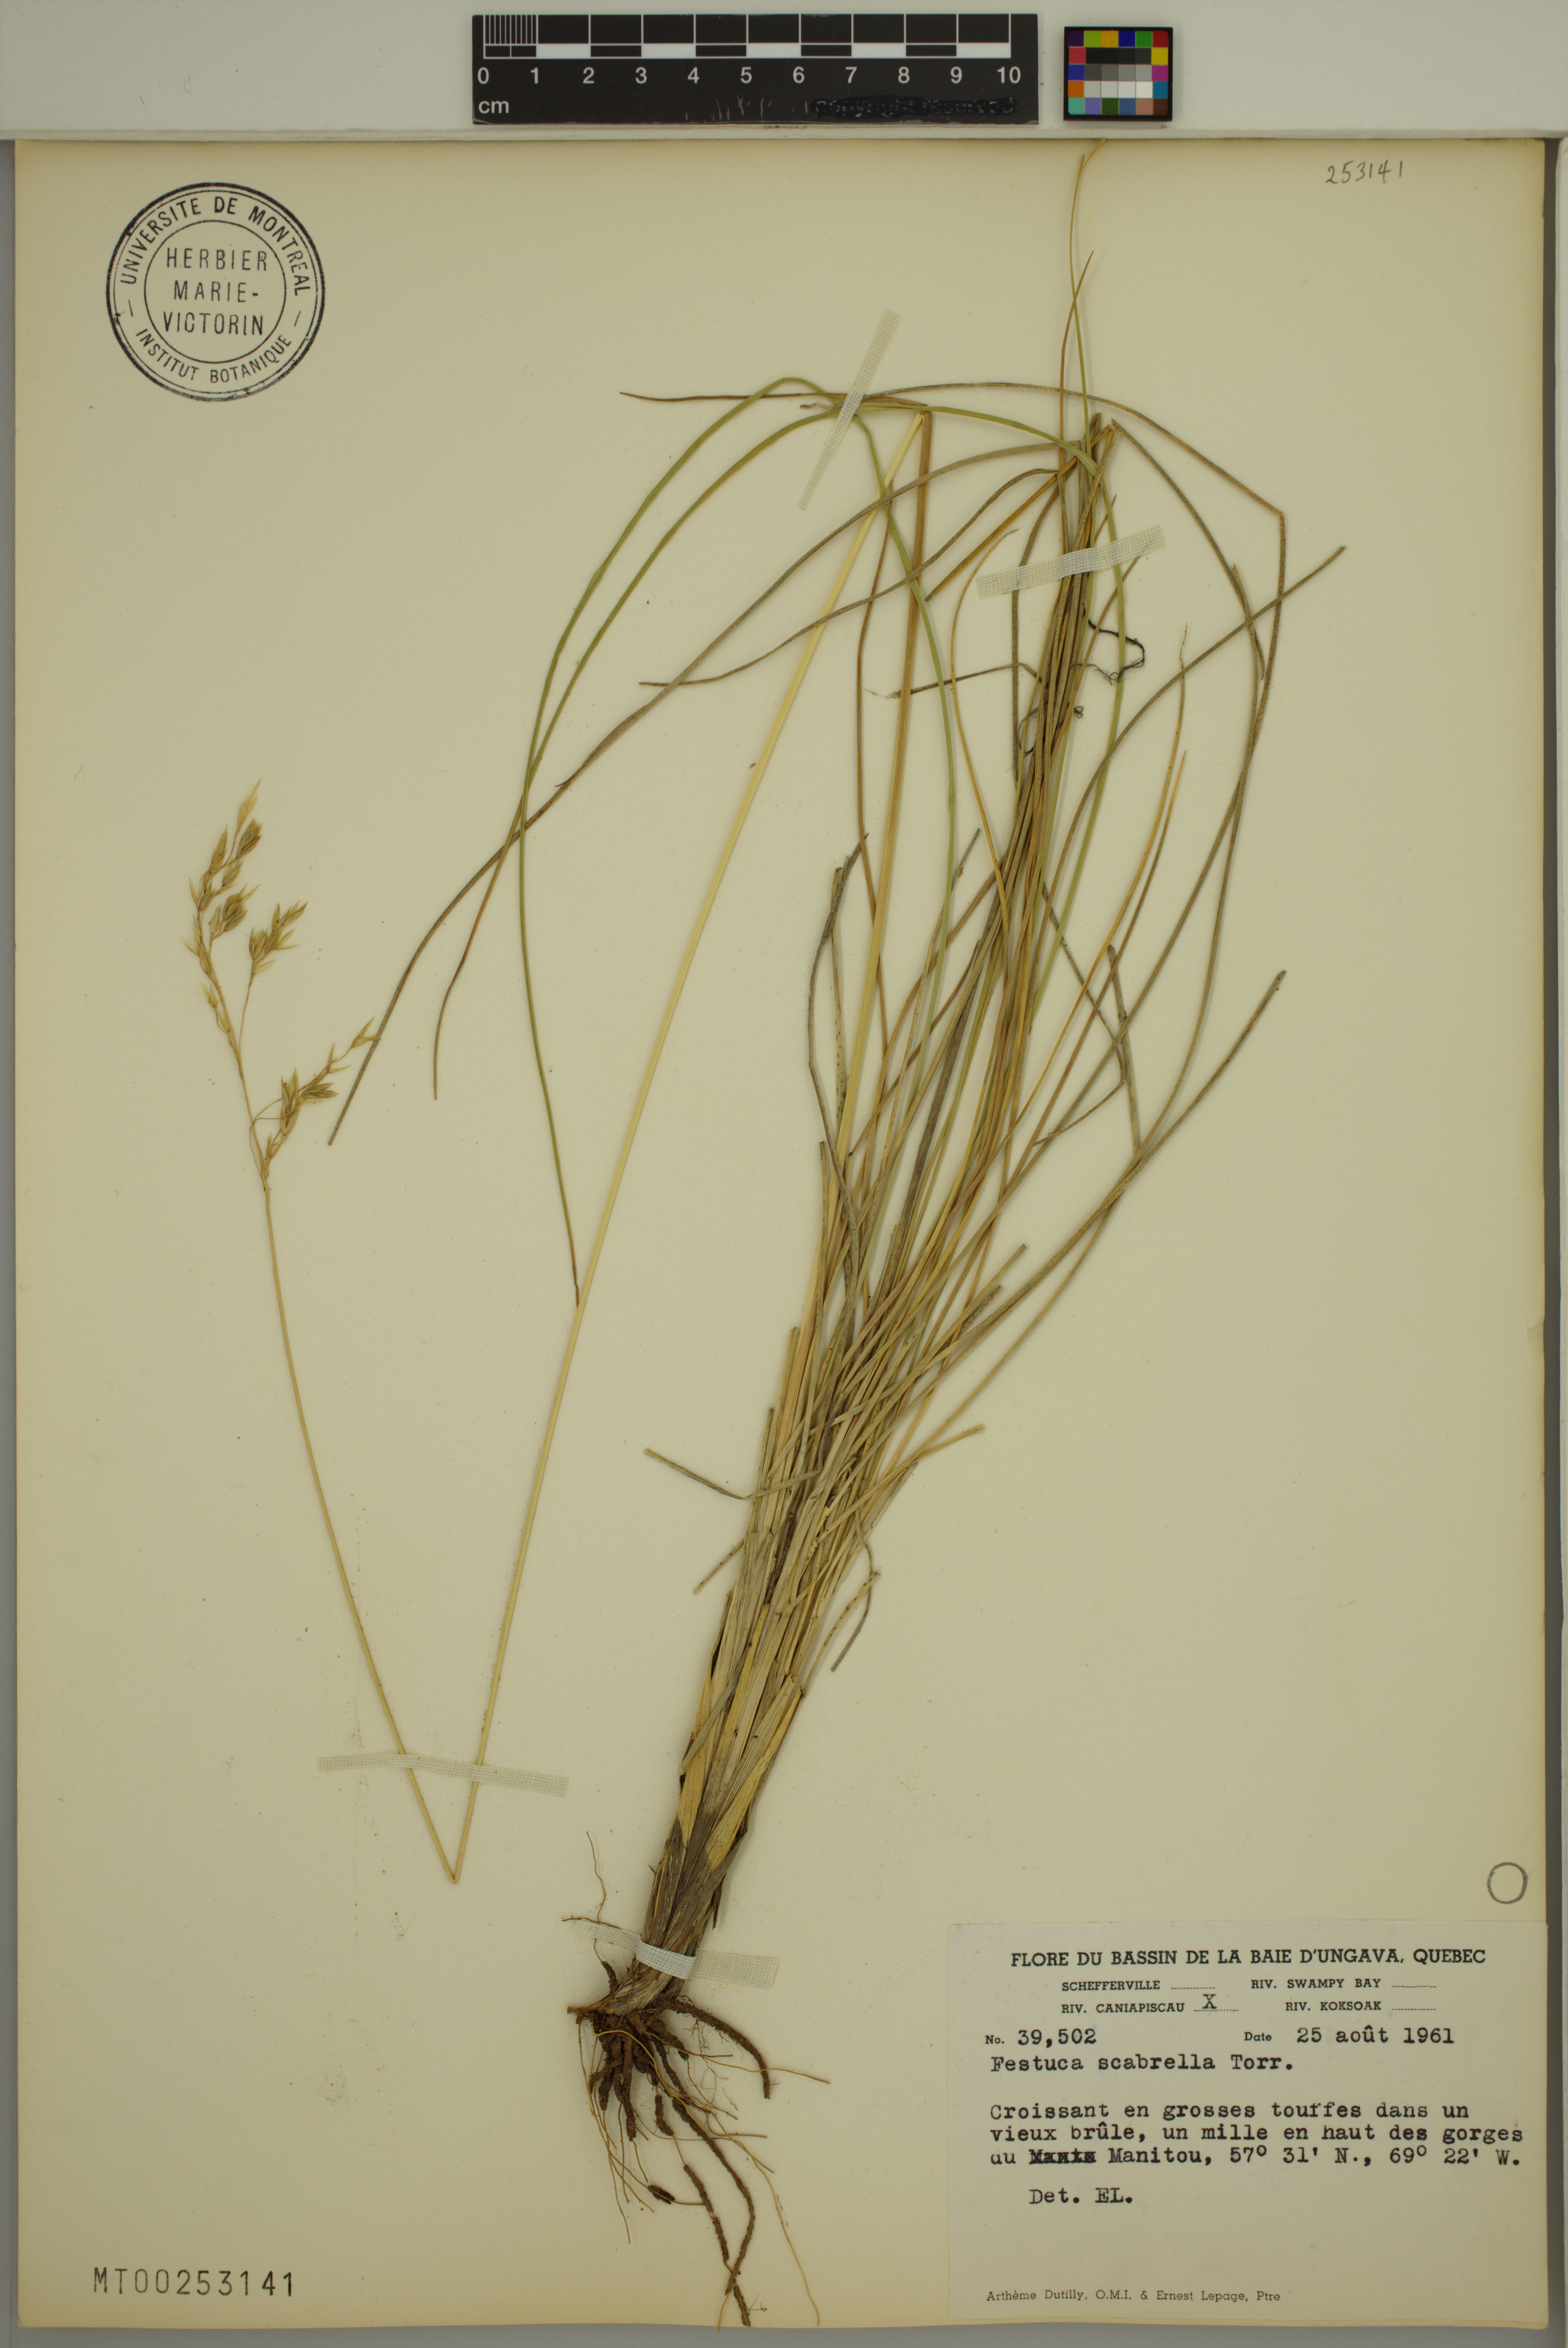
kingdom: Plantae
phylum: Tracheophyta
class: Liliopsida
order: Poales
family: Poaceae
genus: Festuca
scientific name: Festuca
